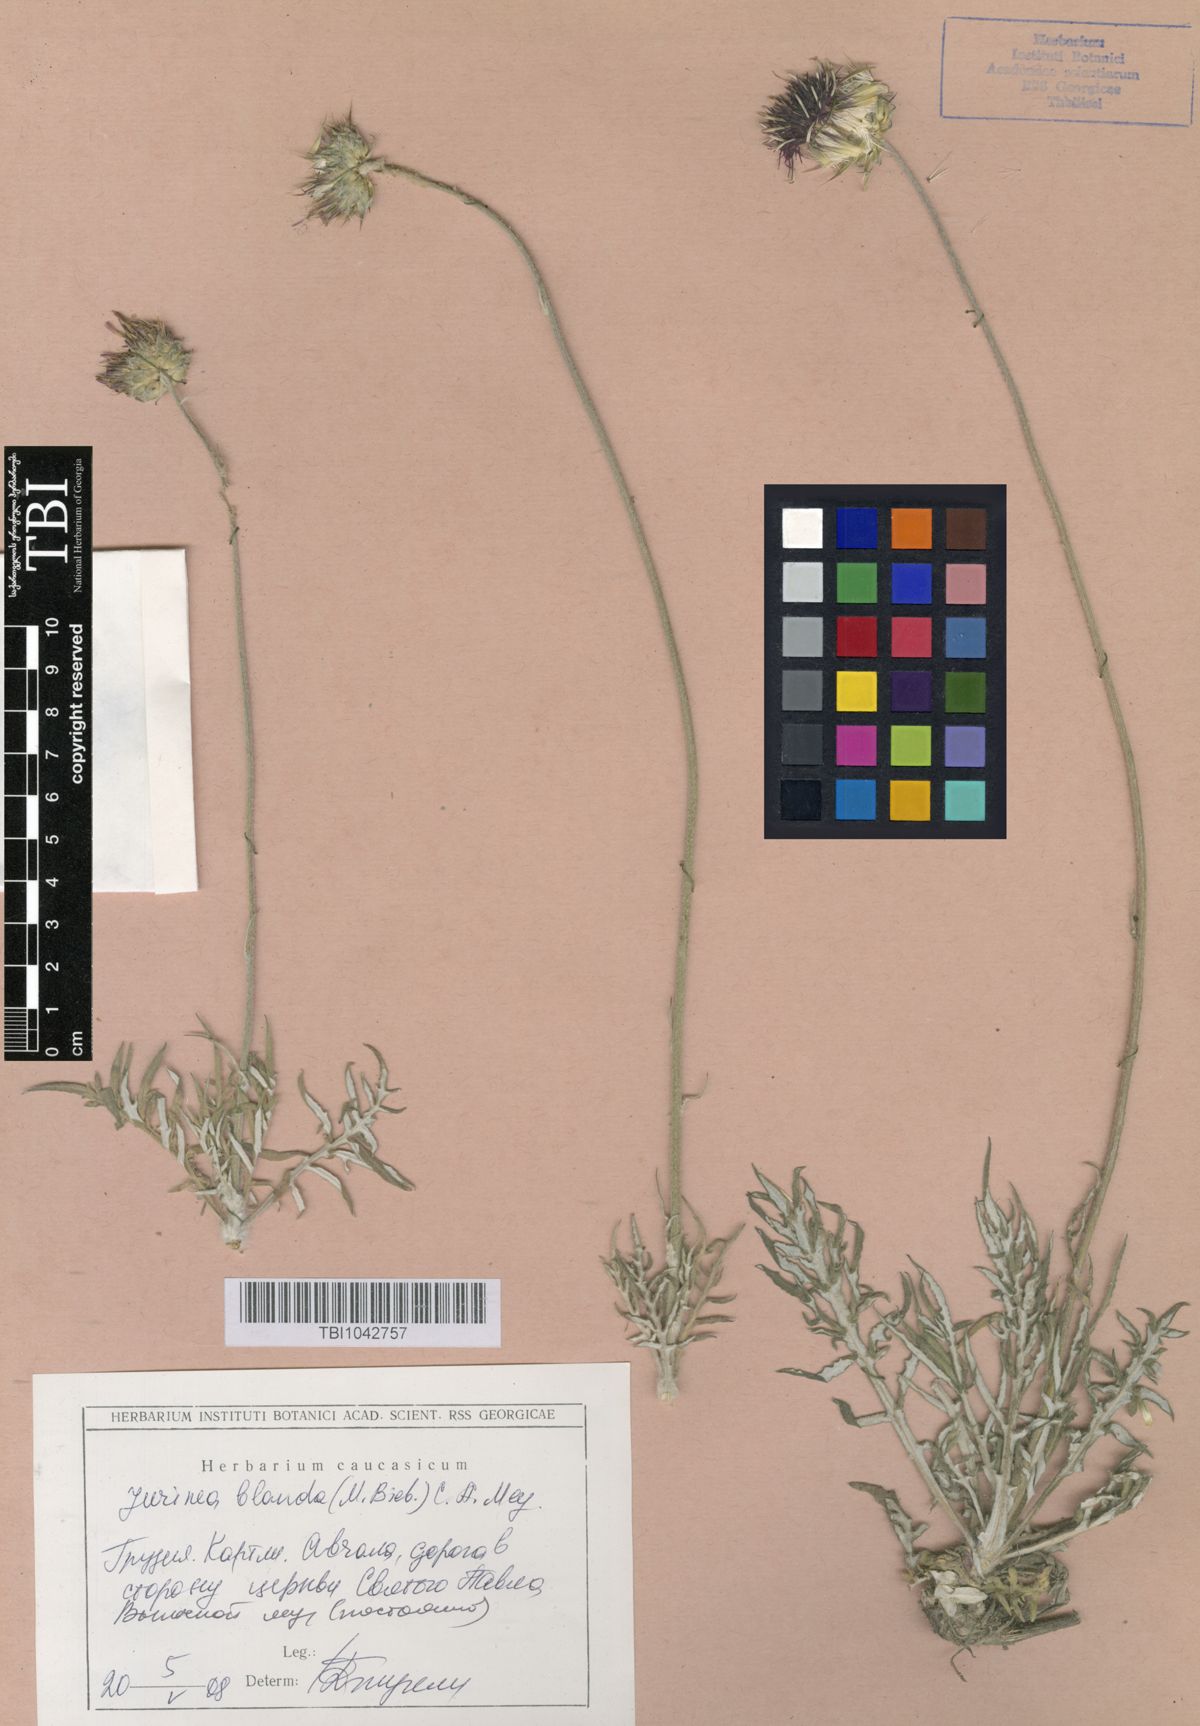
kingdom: Plantae
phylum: Tracheophyta
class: Magnoliopsida
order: Asterales
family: Asteraceae
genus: Jurinea
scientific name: Jurinea blanda
